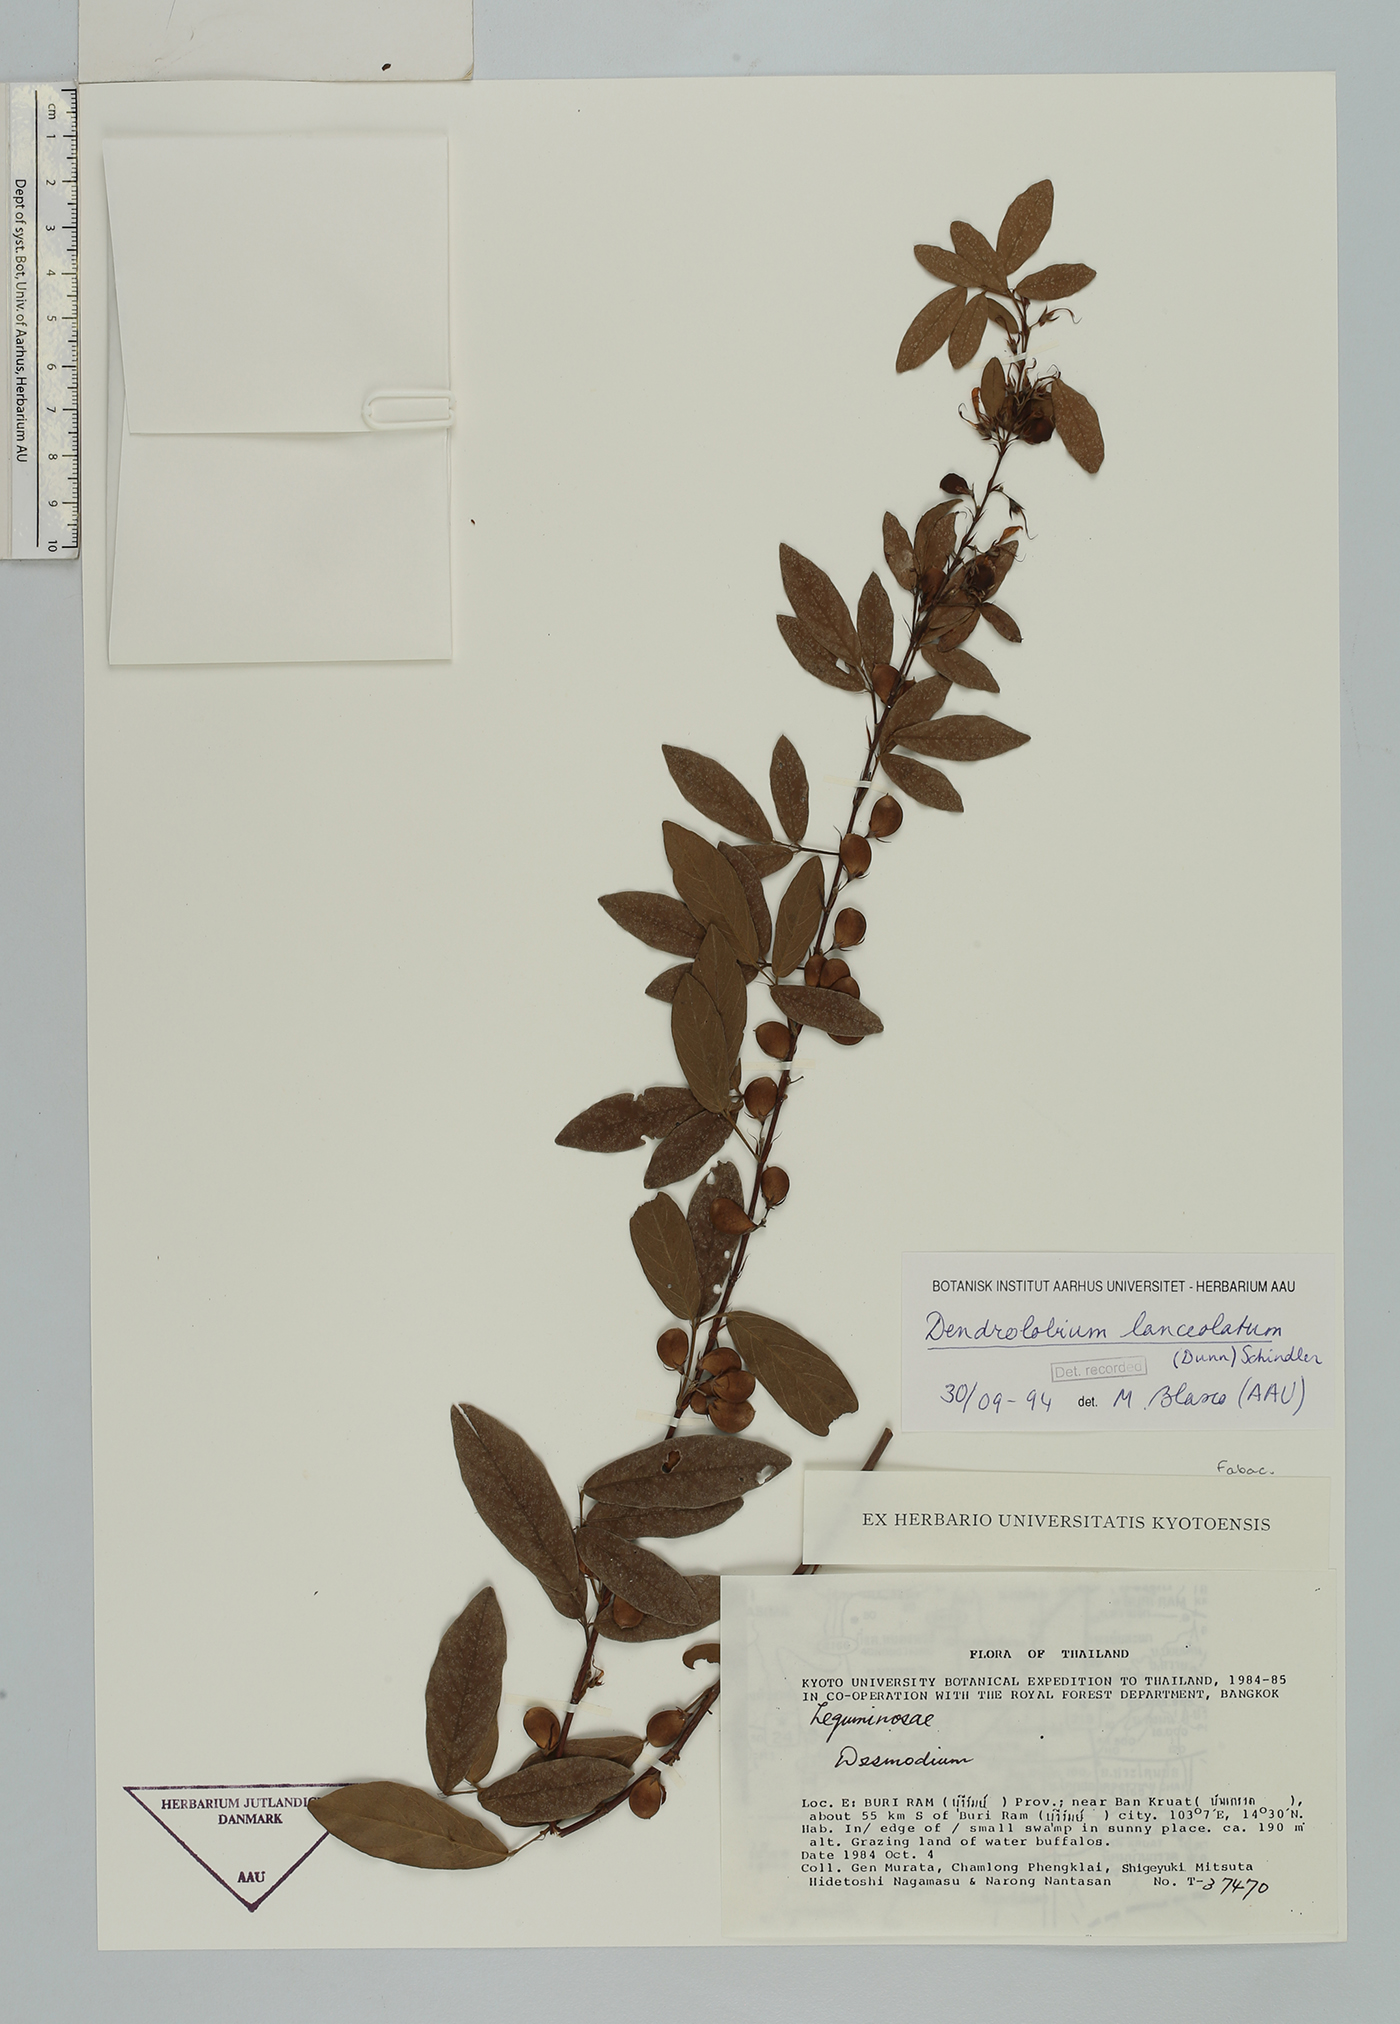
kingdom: Plantae
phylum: Tracheophyta
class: Magnoliopsida
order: Fabales
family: Fabaceae
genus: Dendrolobium
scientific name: Dendrolobium lanceolatum
